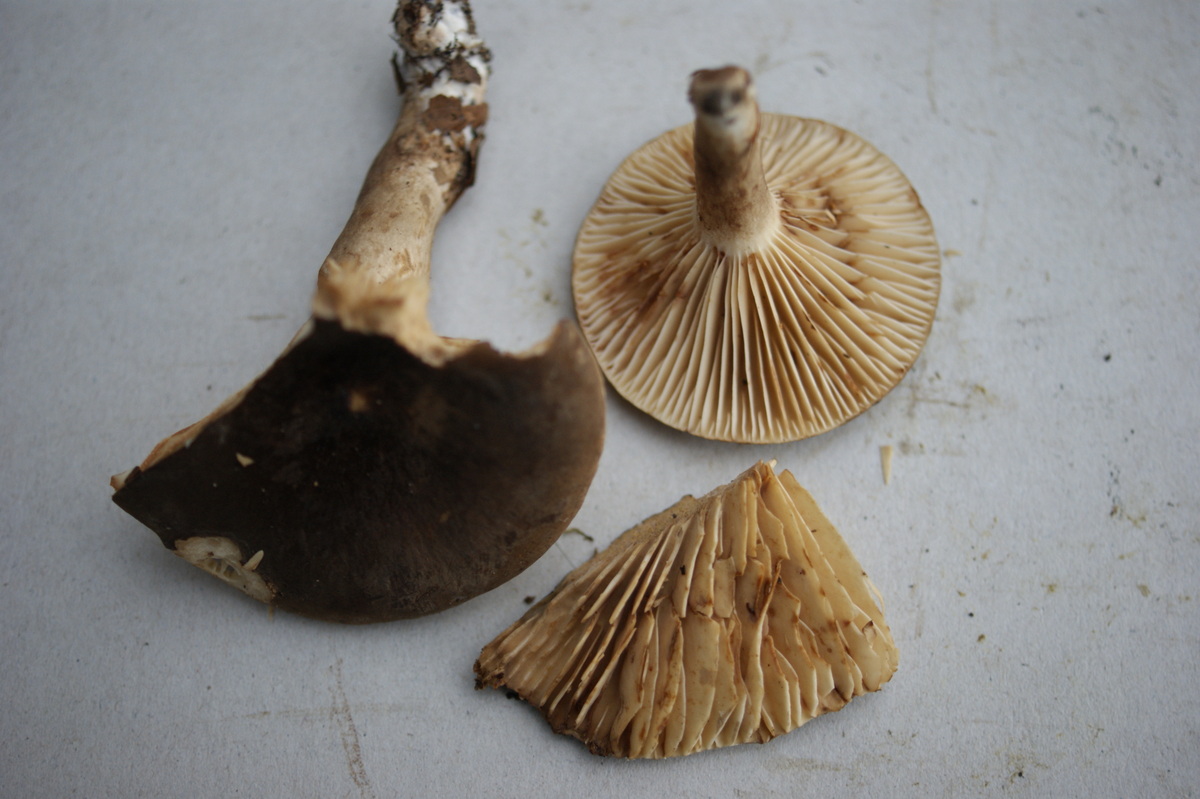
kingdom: Fungi
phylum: Basidiomycota
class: Agaricomycetes
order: Russulales
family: Russulaceae
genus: Lactarius
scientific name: Lactarius romagnesii
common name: fjernbladet mælkehat
